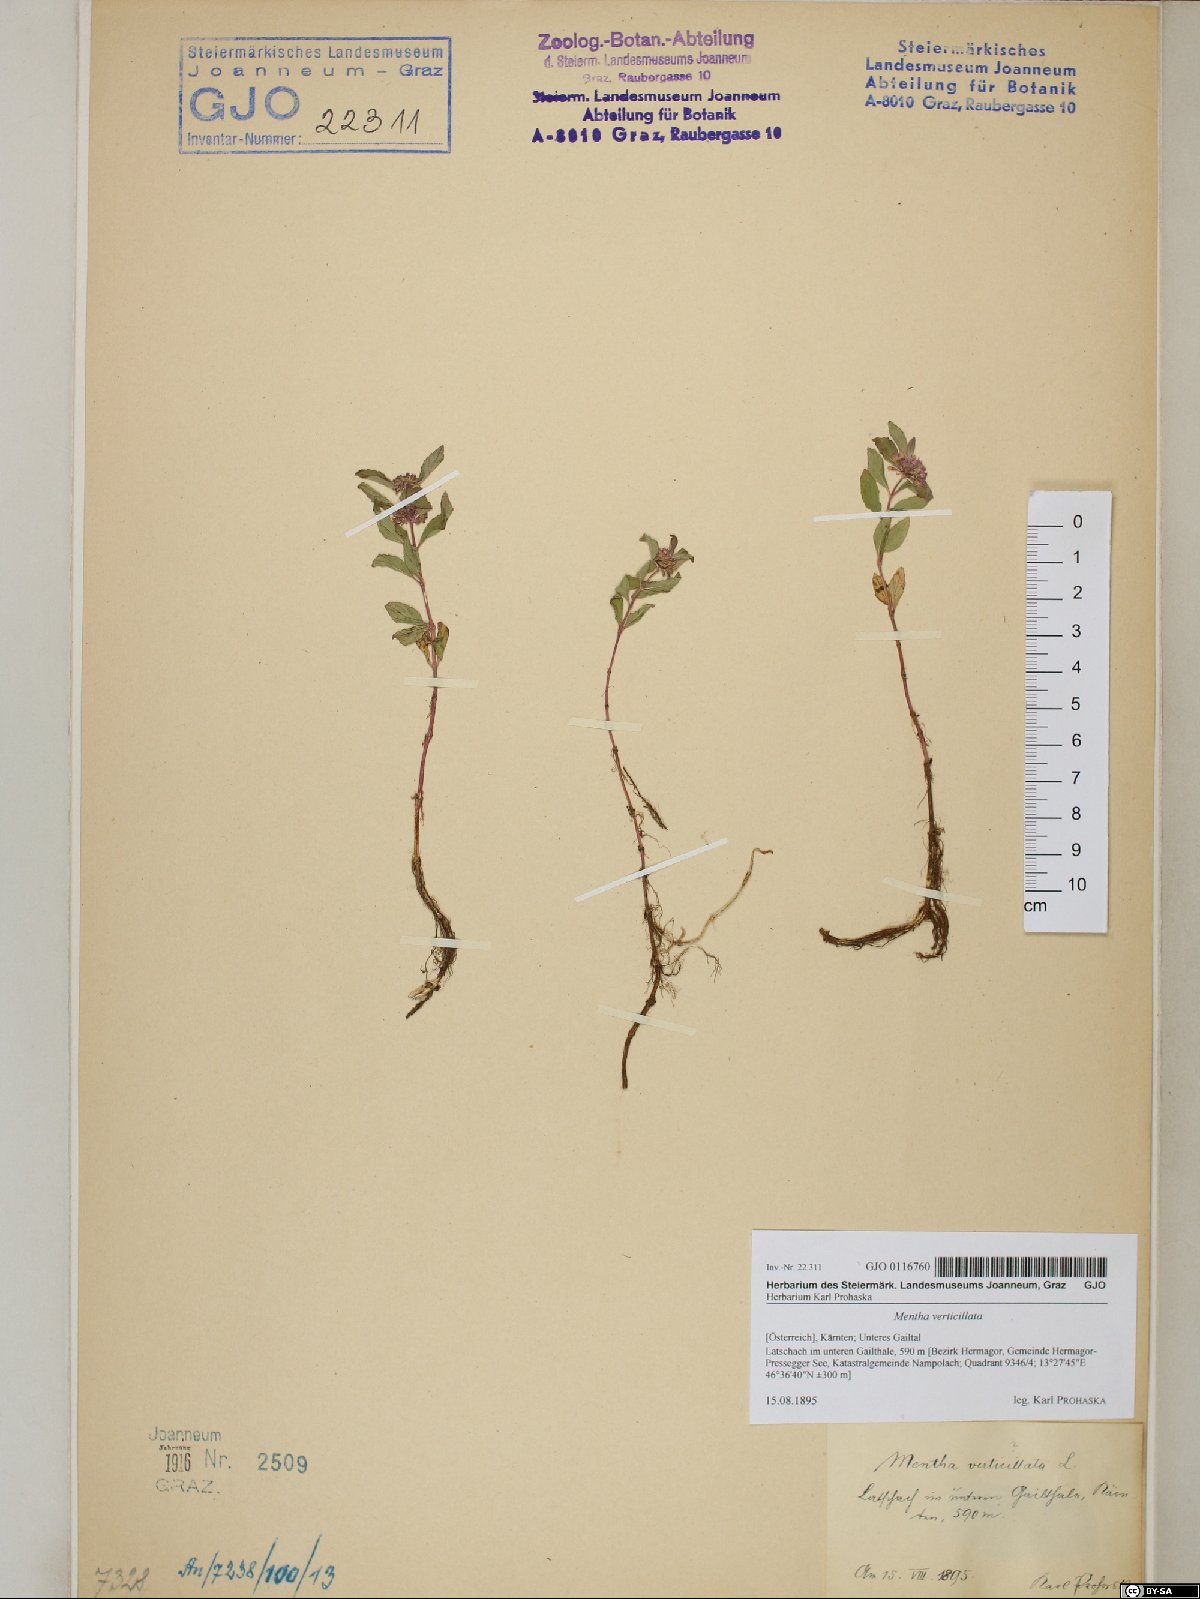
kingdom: Plantae
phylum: Tracheophyta
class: Magnoliopsida
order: Lamiales
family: Lamiaceae
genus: Mentha
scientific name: Mentha verticillata
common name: Mint
